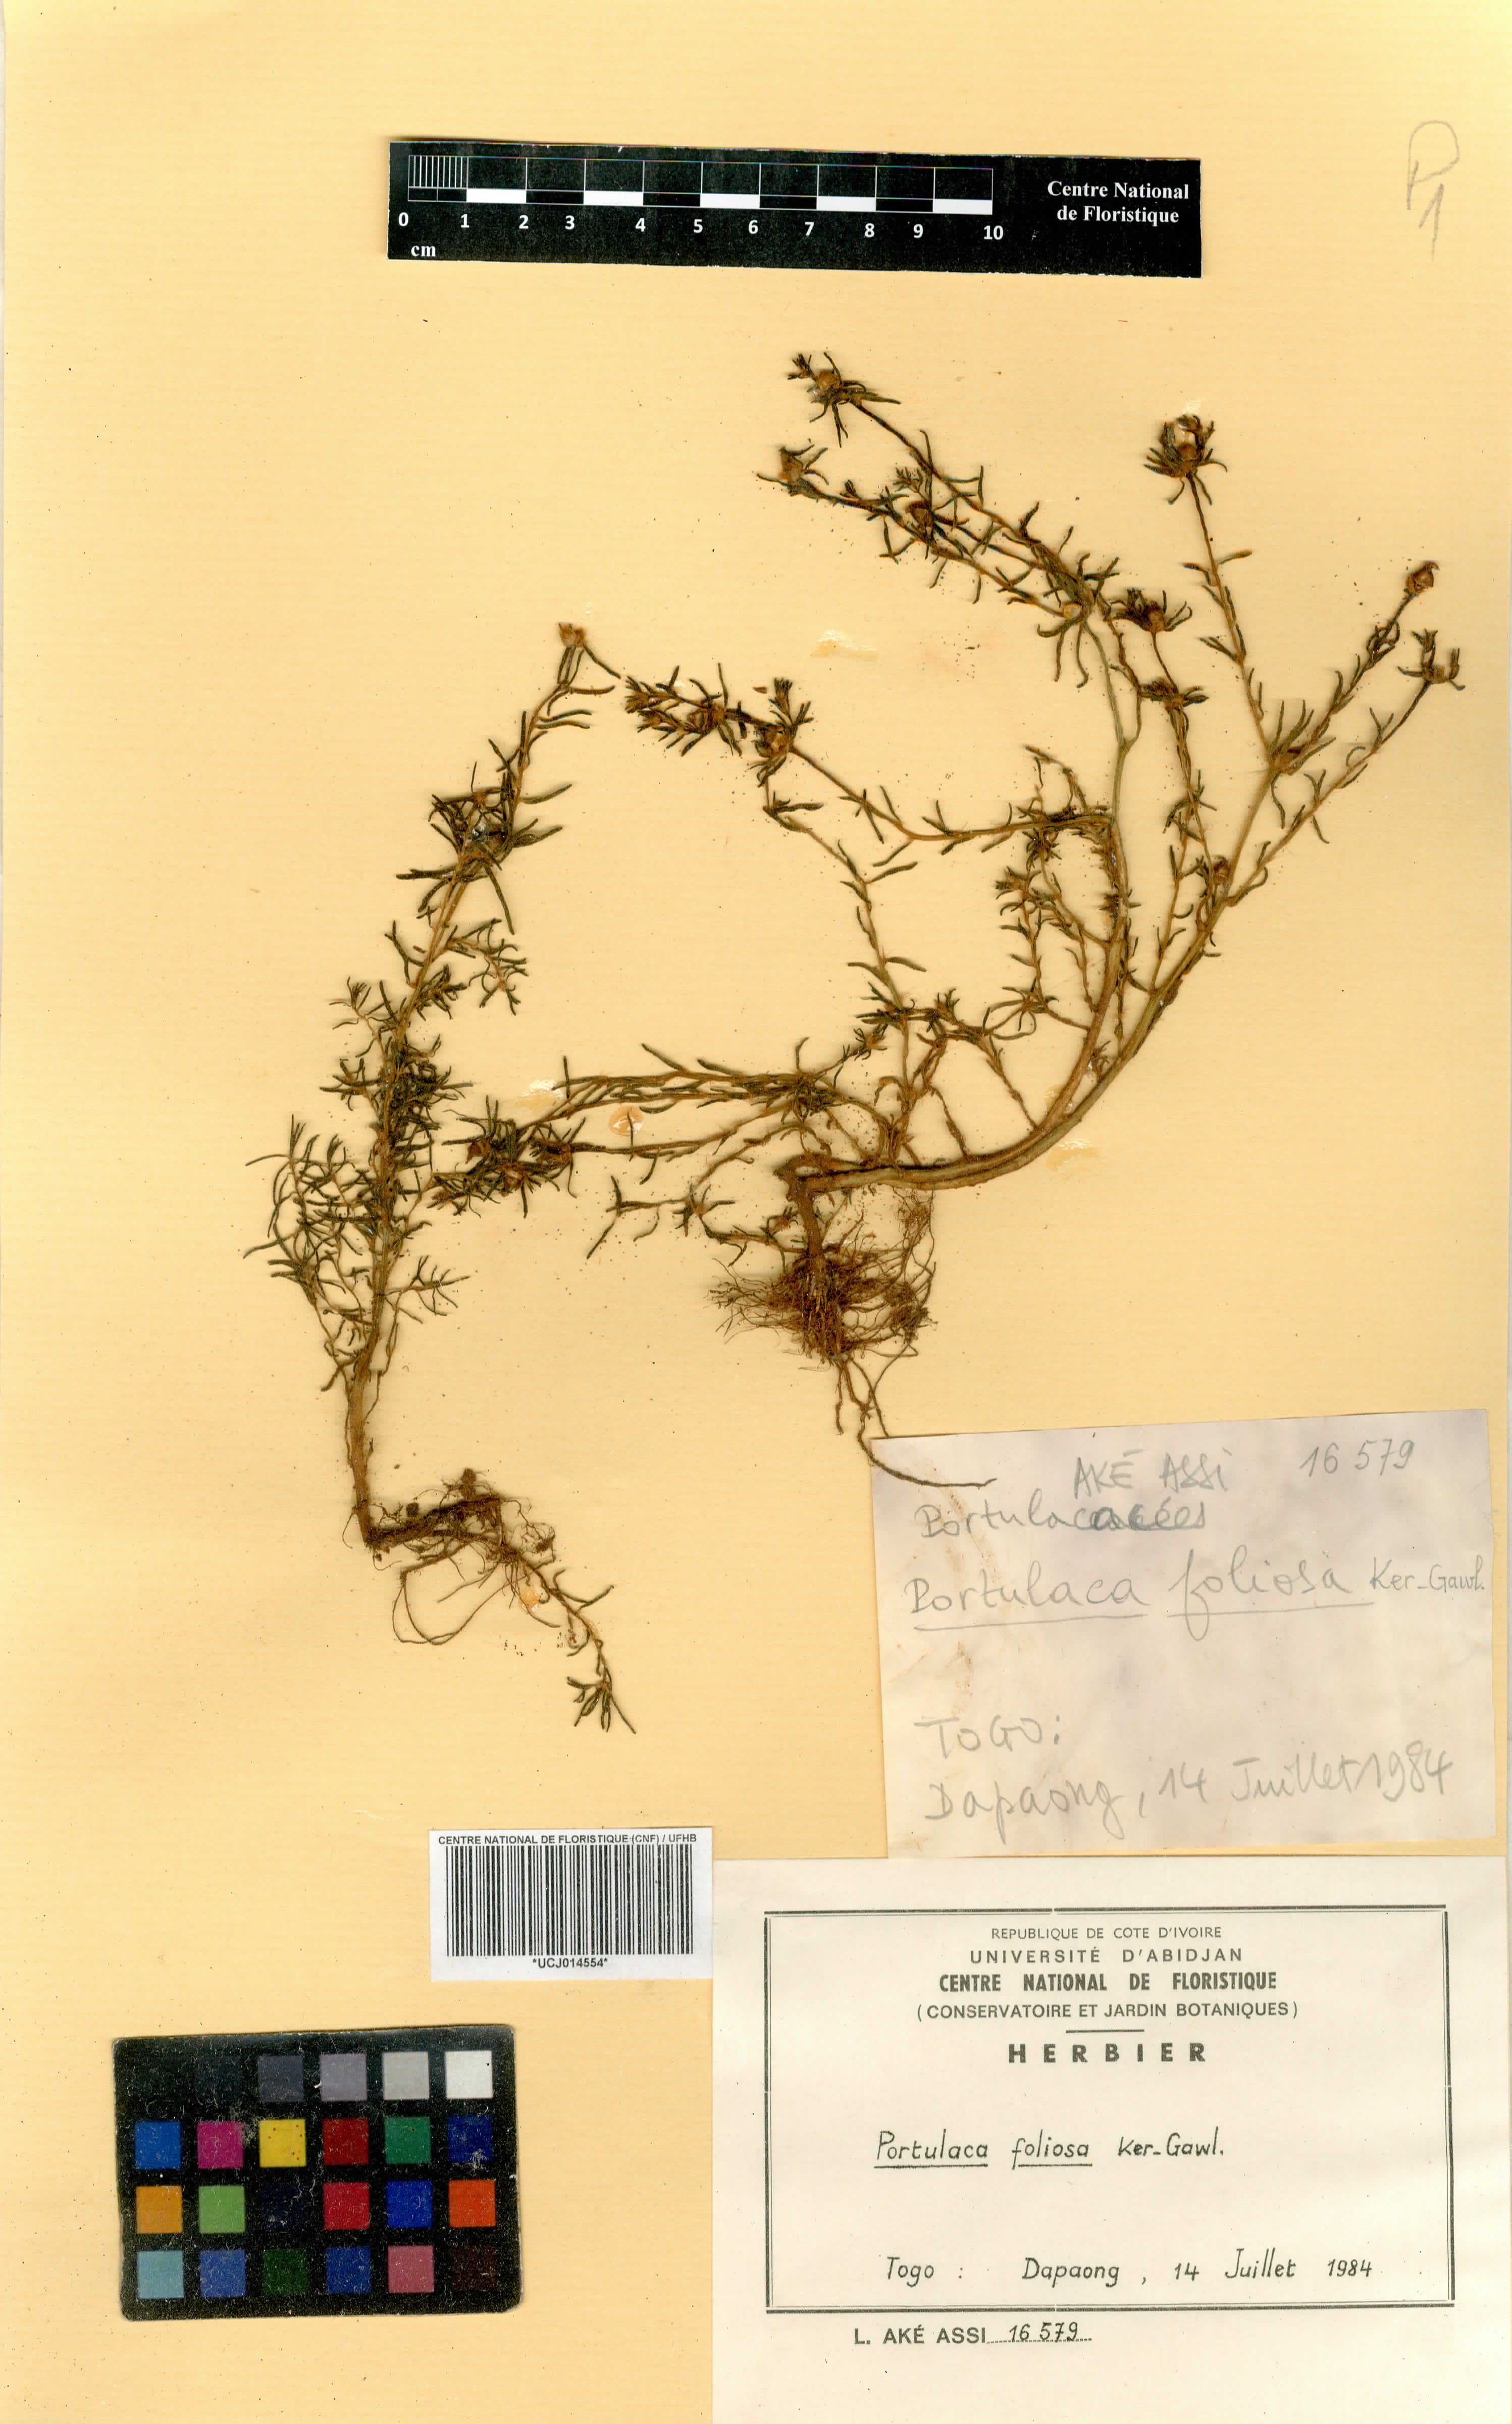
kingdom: Plantae
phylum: Tracheophyta
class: Magnoliopsida
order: Caryophyllales
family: Portulacaceae
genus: Portulaca
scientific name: Portulaca foliosa
